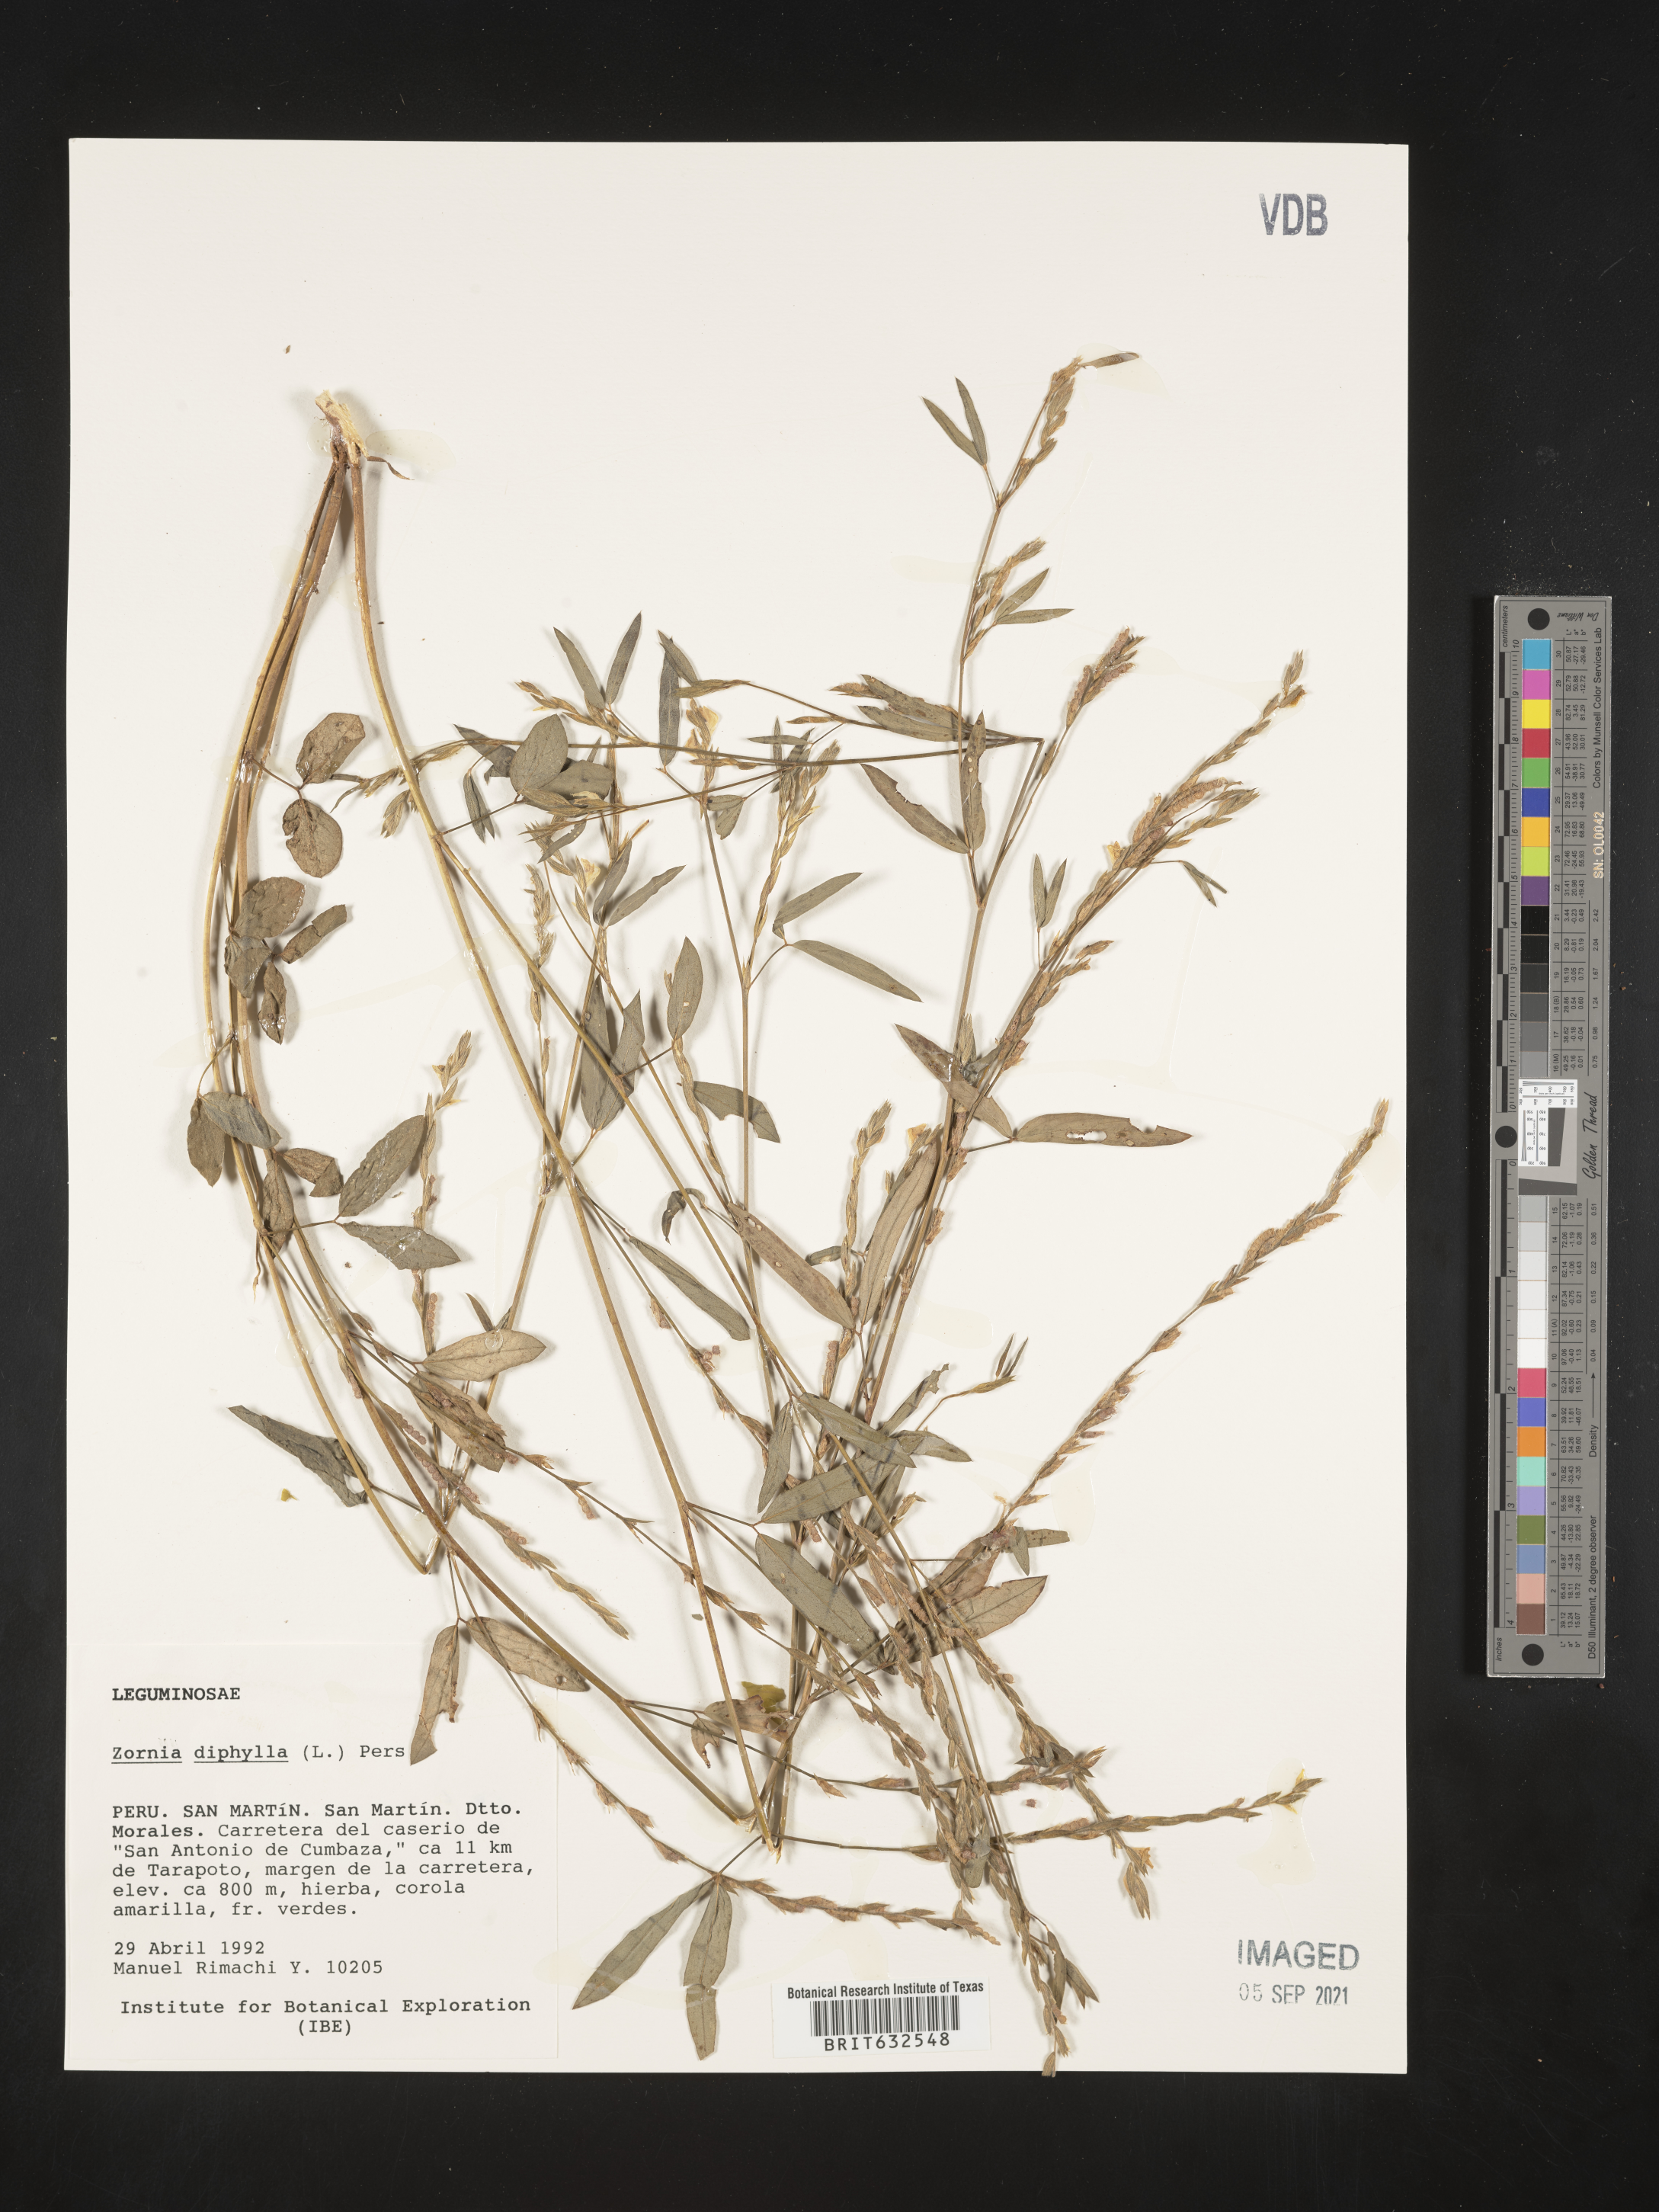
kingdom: Plantae
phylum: Tracheophyta
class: Magnoliopsida
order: Fabales
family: Fabaceae
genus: Zornia
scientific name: Zornia
